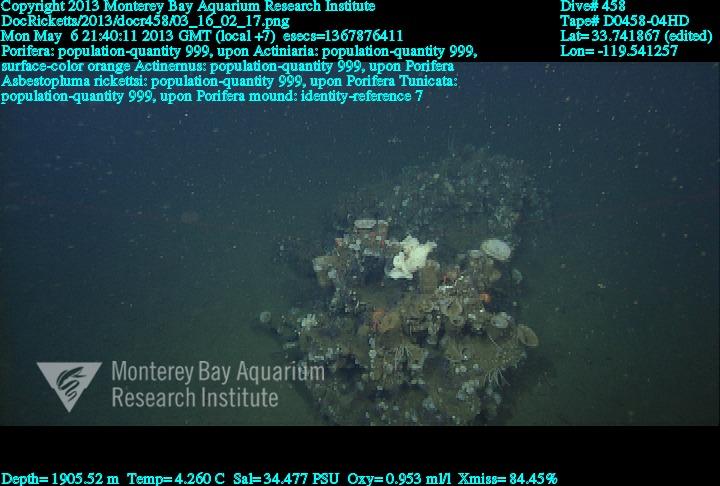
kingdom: Animalia
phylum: Porifera
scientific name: Porifera
